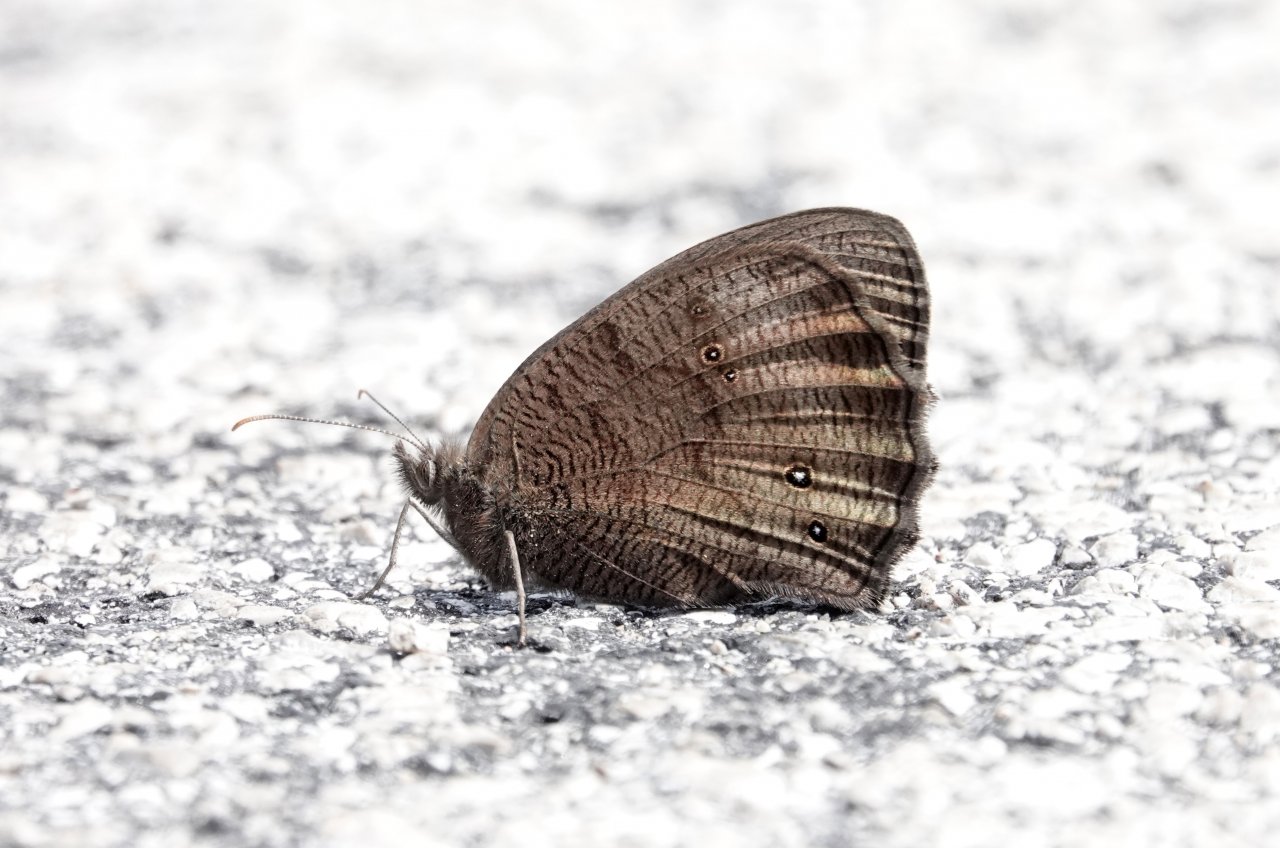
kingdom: Animalia
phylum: Arthropoda
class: Insecta
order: Lepidoptera
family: Nymphalidae
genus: Cercyonis
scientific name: Cercyonis pegala
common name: Common Wood-Nymph
